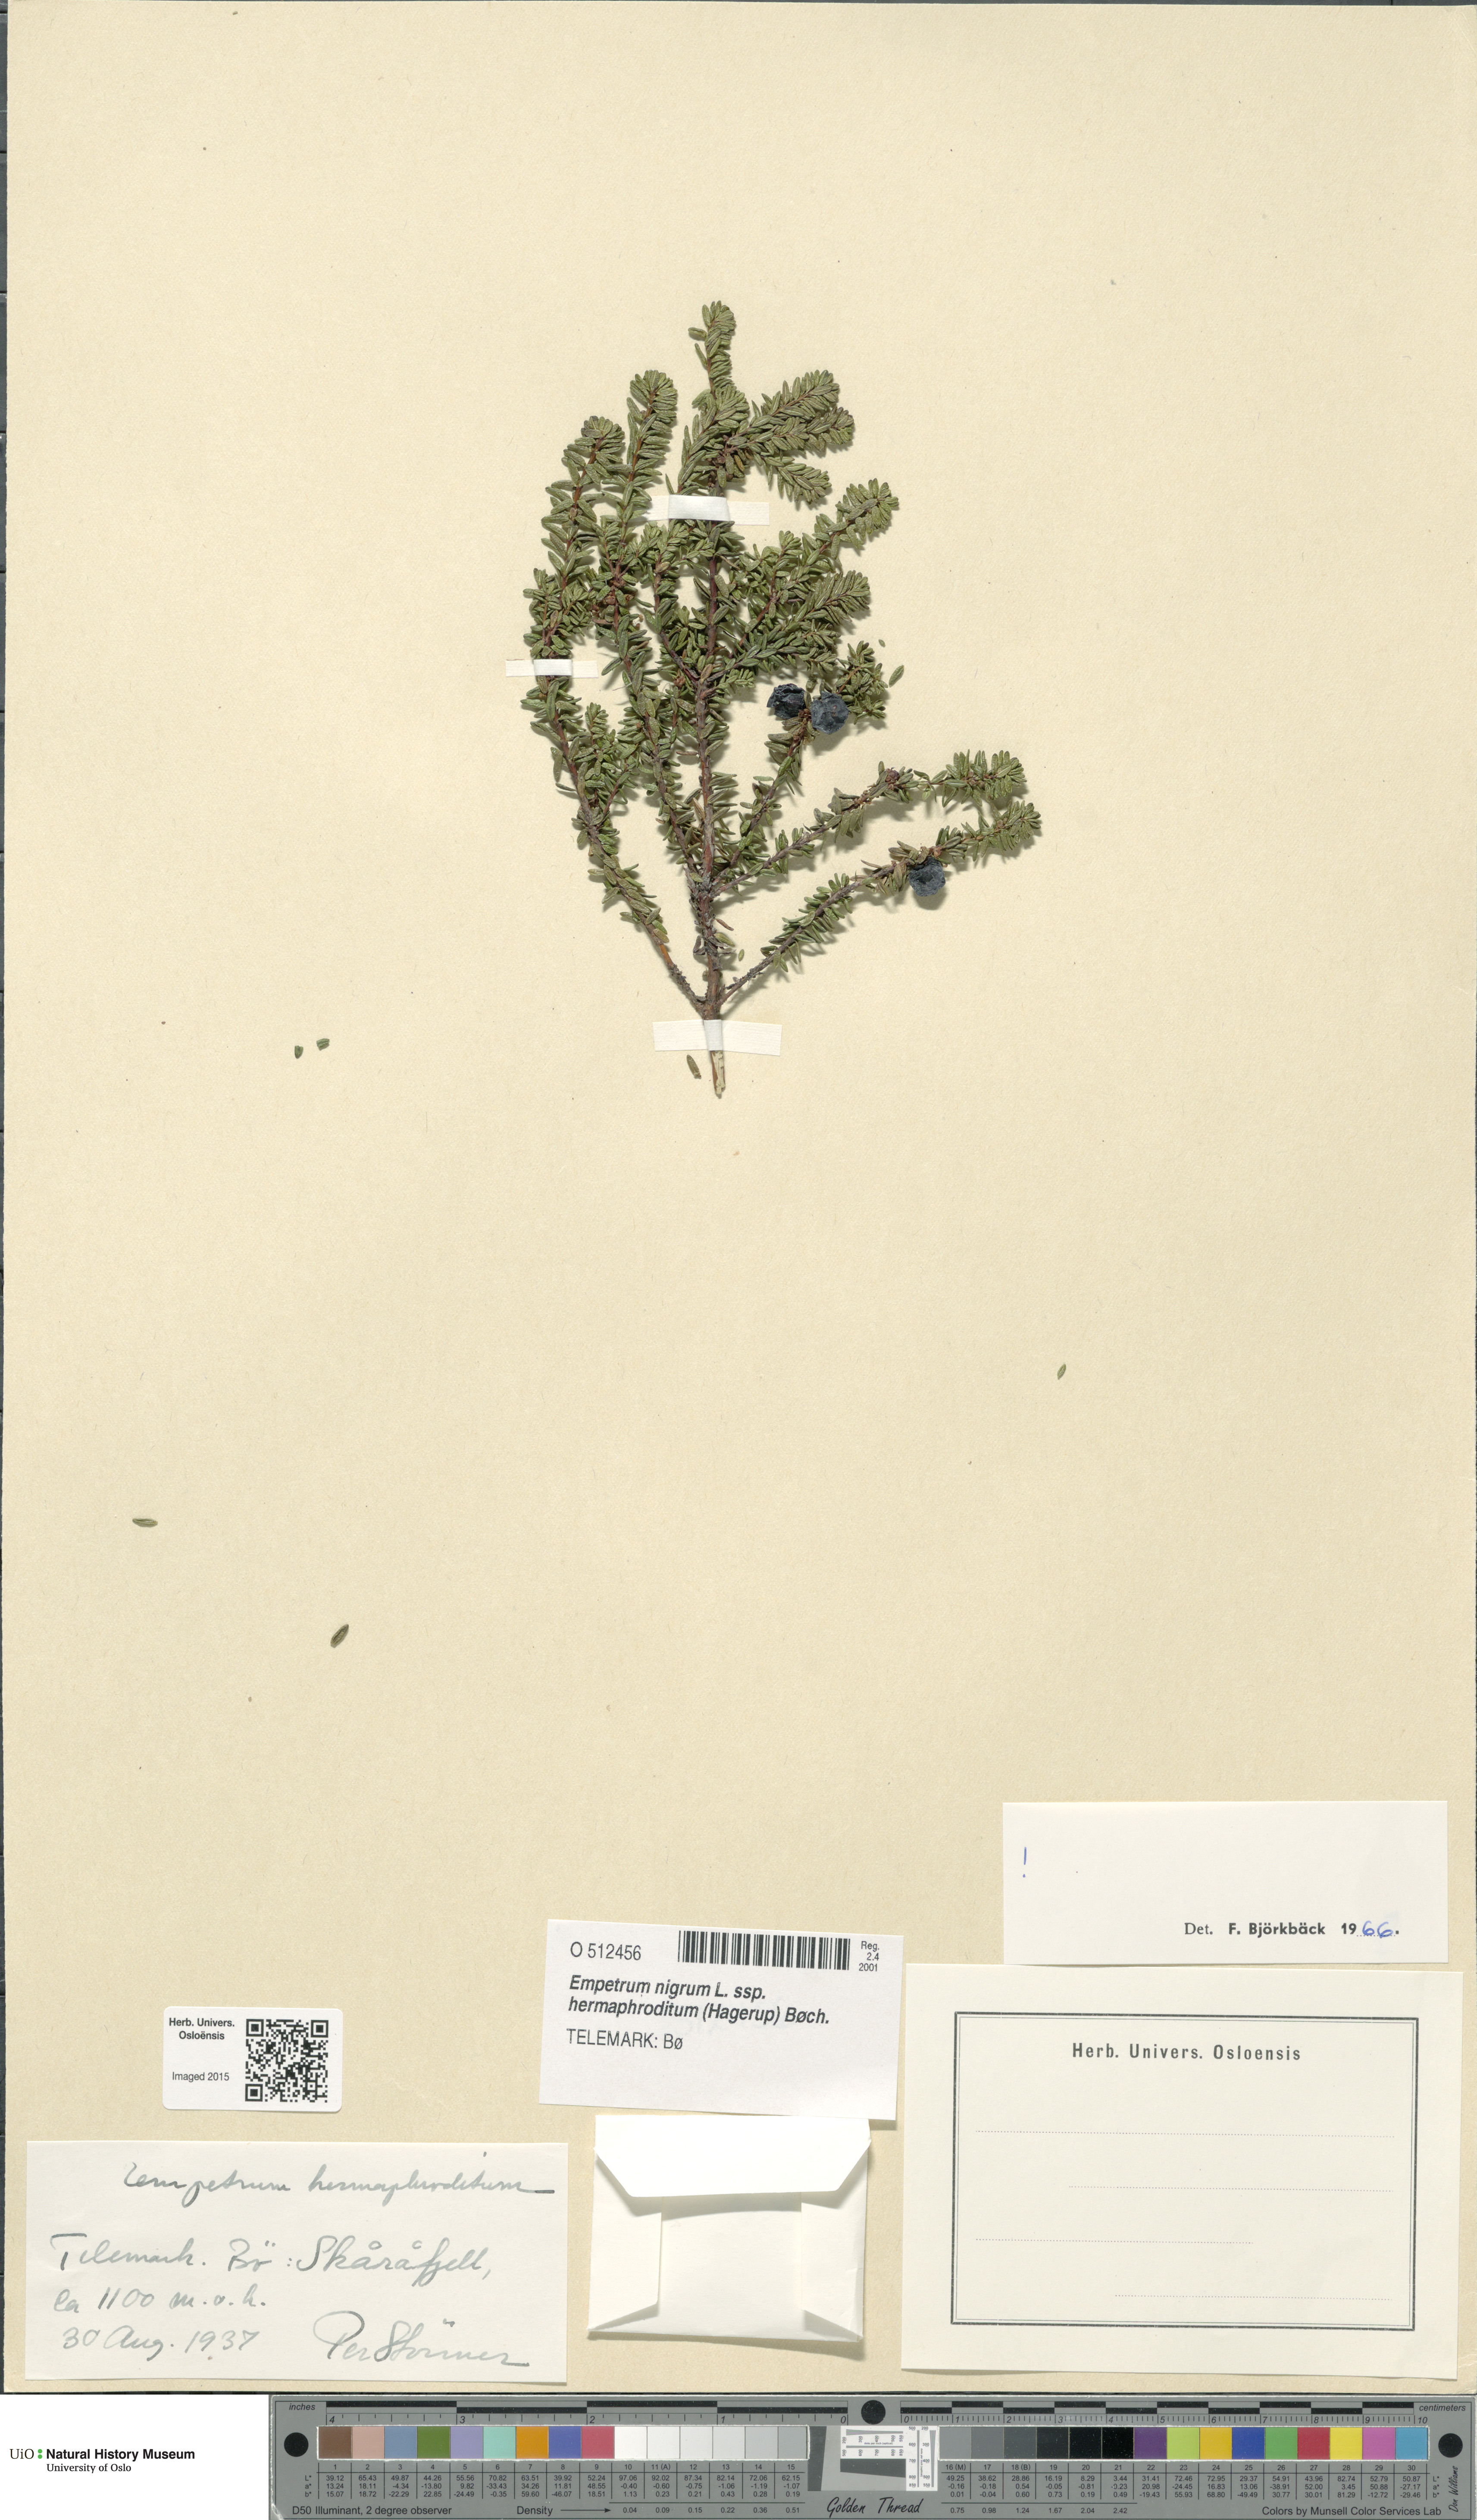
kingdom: Plantae
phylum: Tracheophyta
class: Magnoliopsida
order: Ericales
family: Ericaceae
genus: Empetrum
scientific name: Empetrum hermaphroditum
